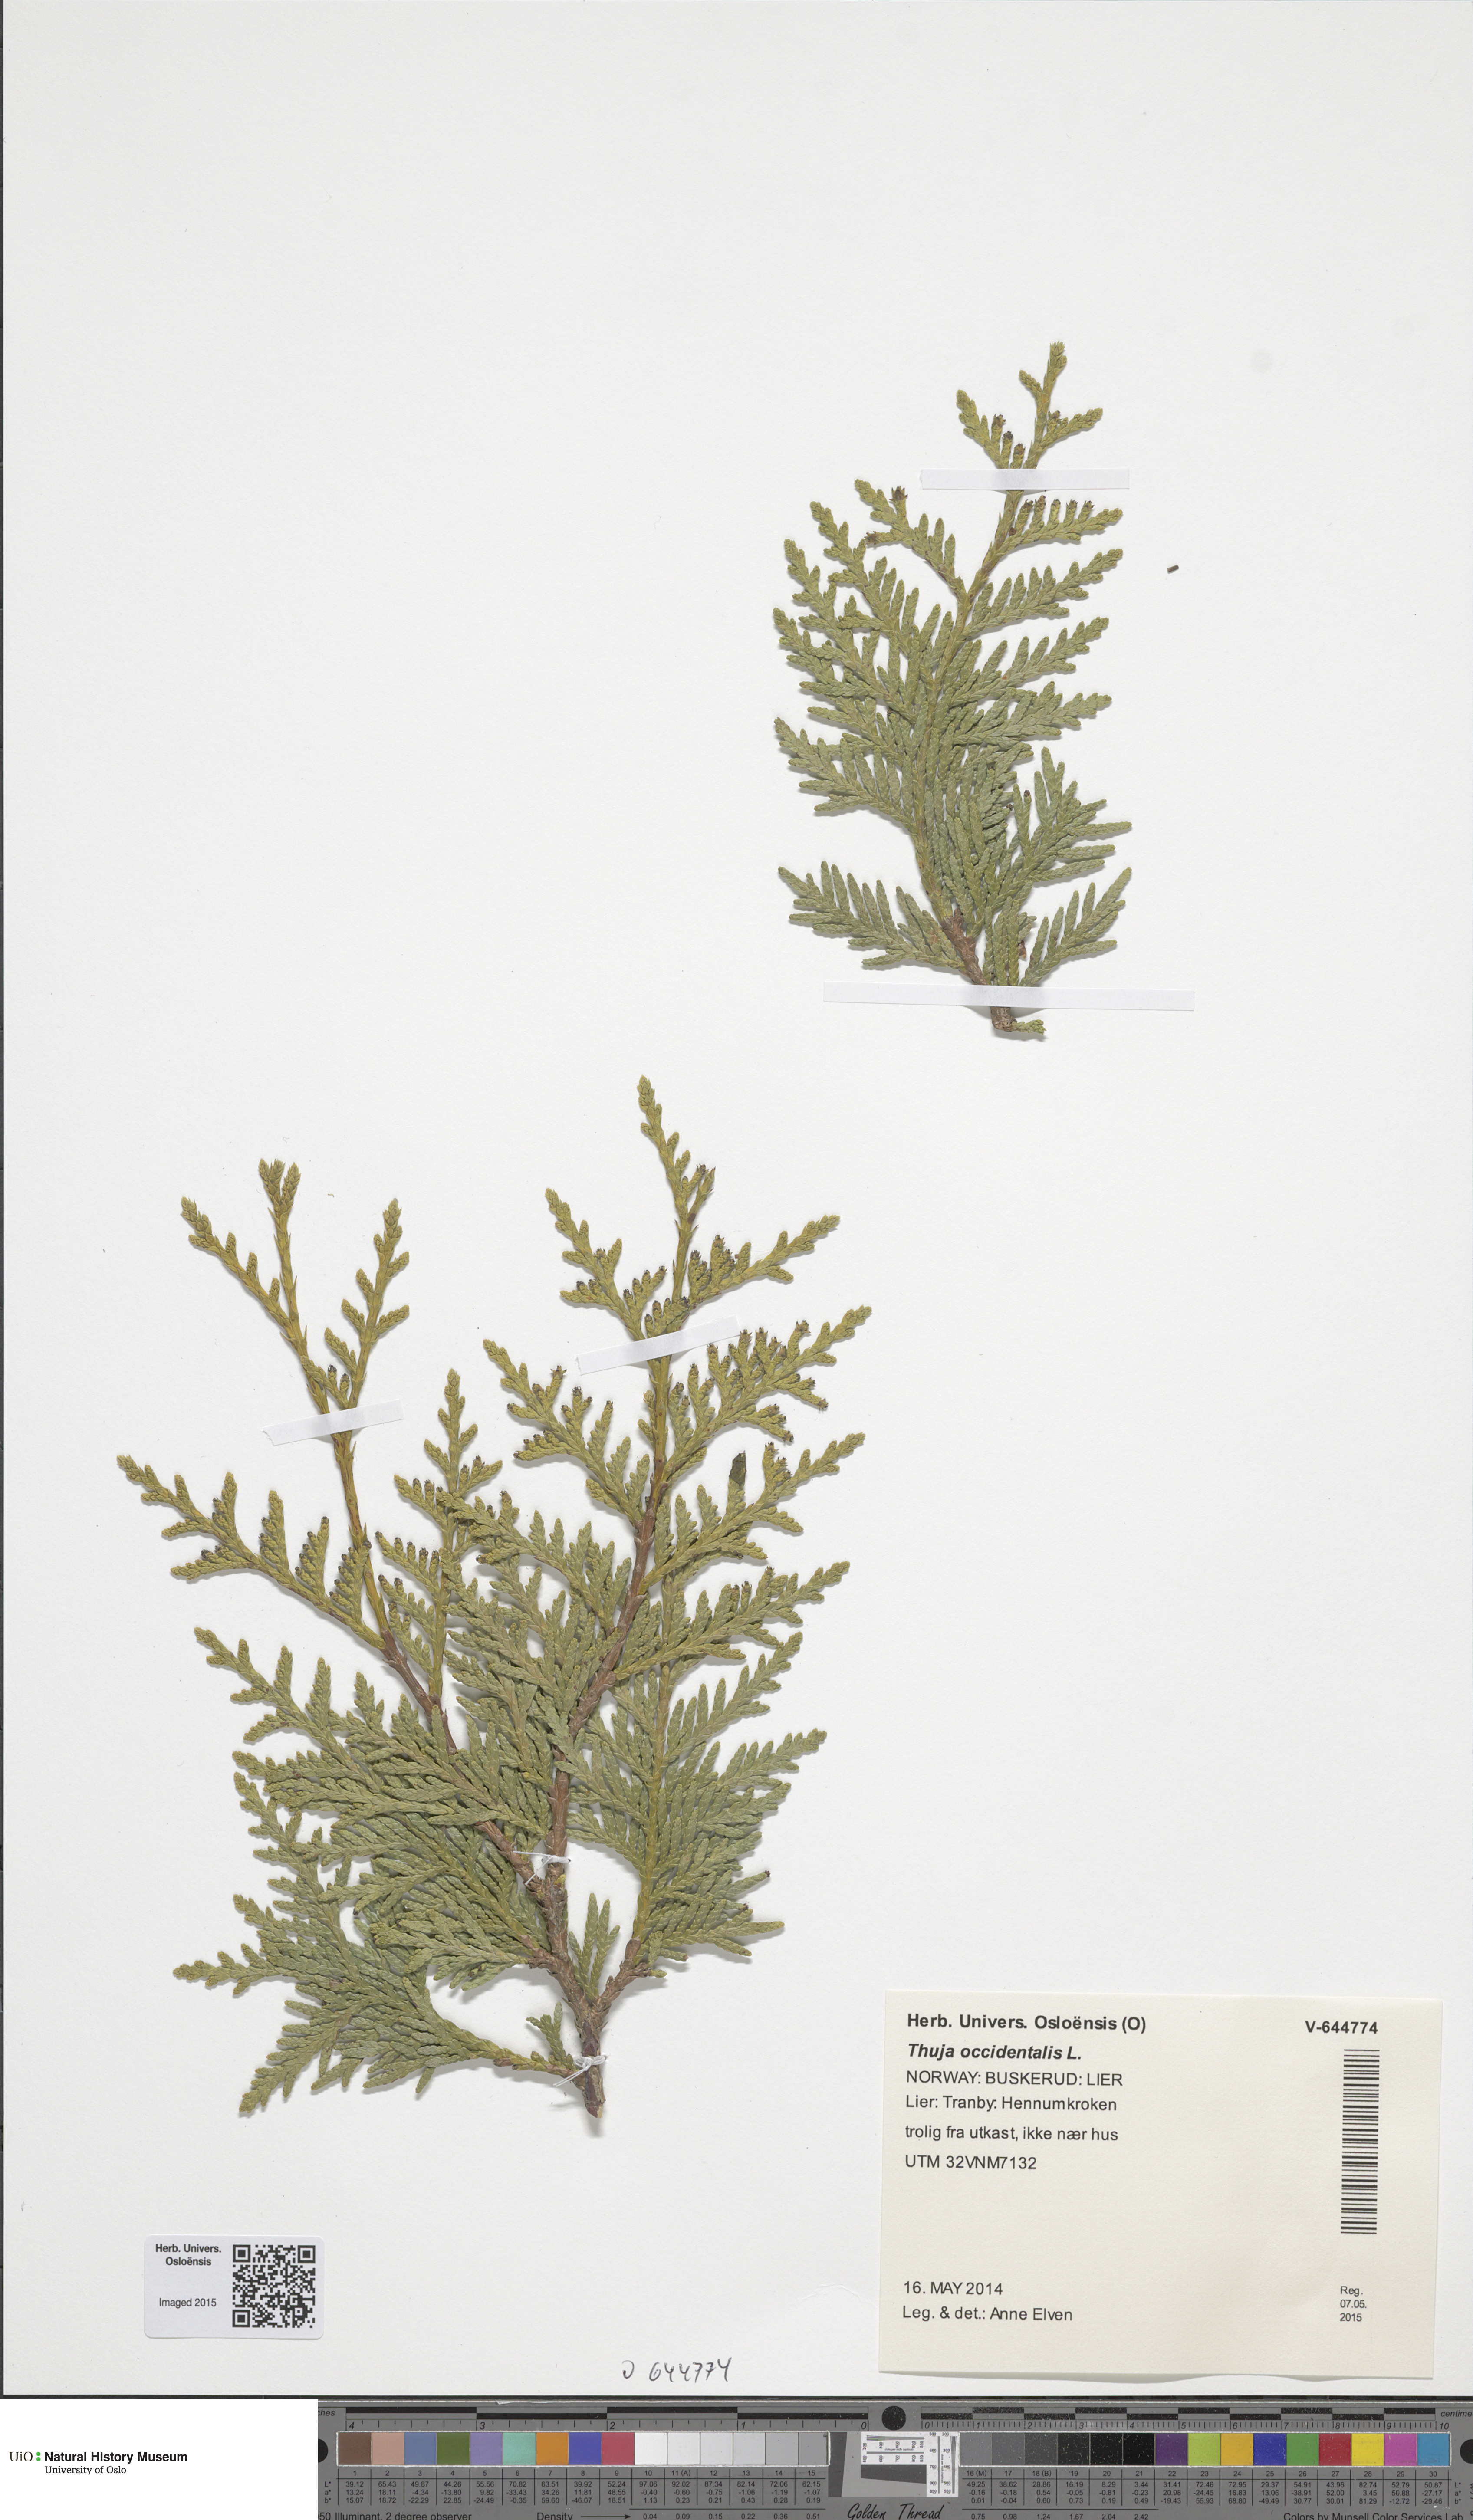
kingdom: Plantae
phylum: Tracheophyta
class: Pinopsida
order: Pinales
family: Cupressaceae
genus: Thuja
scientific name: Thuja occidentalis
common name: Northern white-cedar
